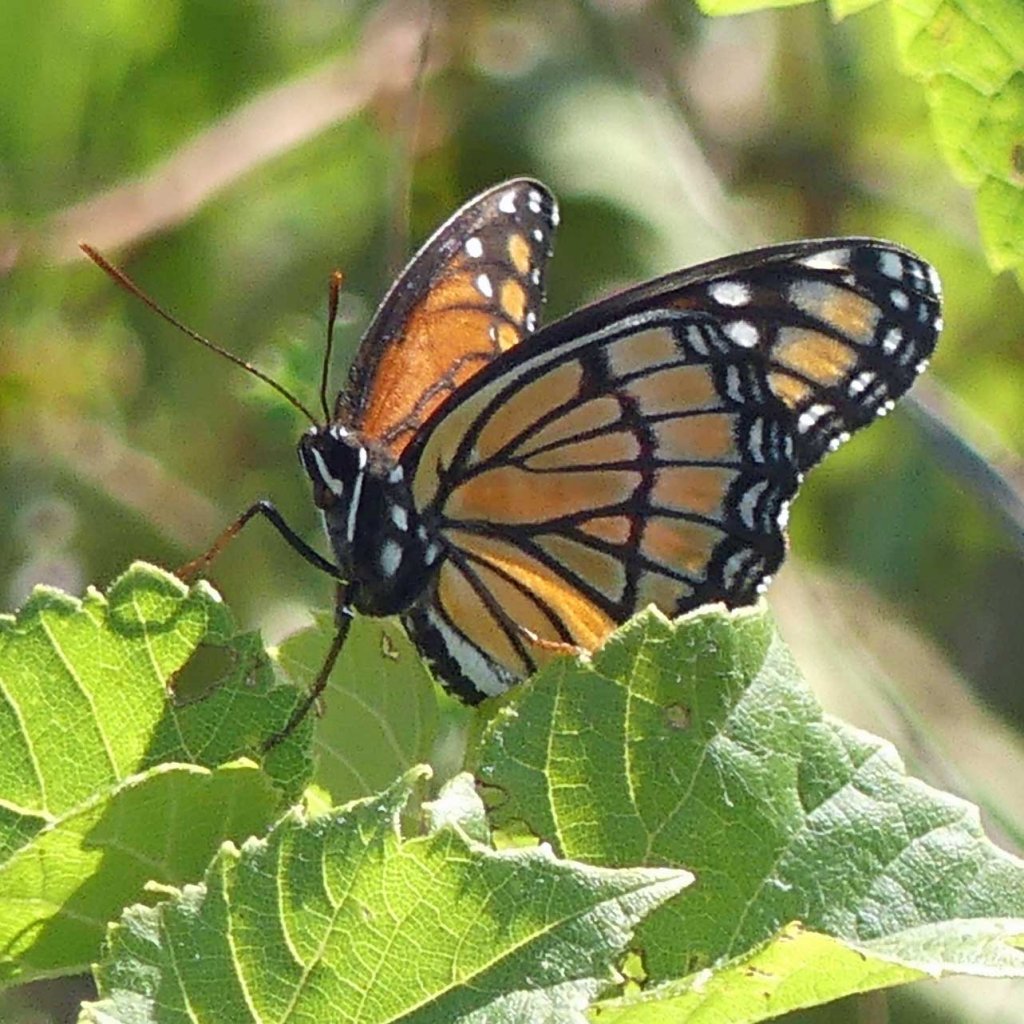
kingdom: Animalia
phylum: Arthropoda
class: Insecta
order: Lepidoptera
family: Nymphalidae
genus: Limenitis
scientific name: Limenitis archippus
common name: Viceroy
